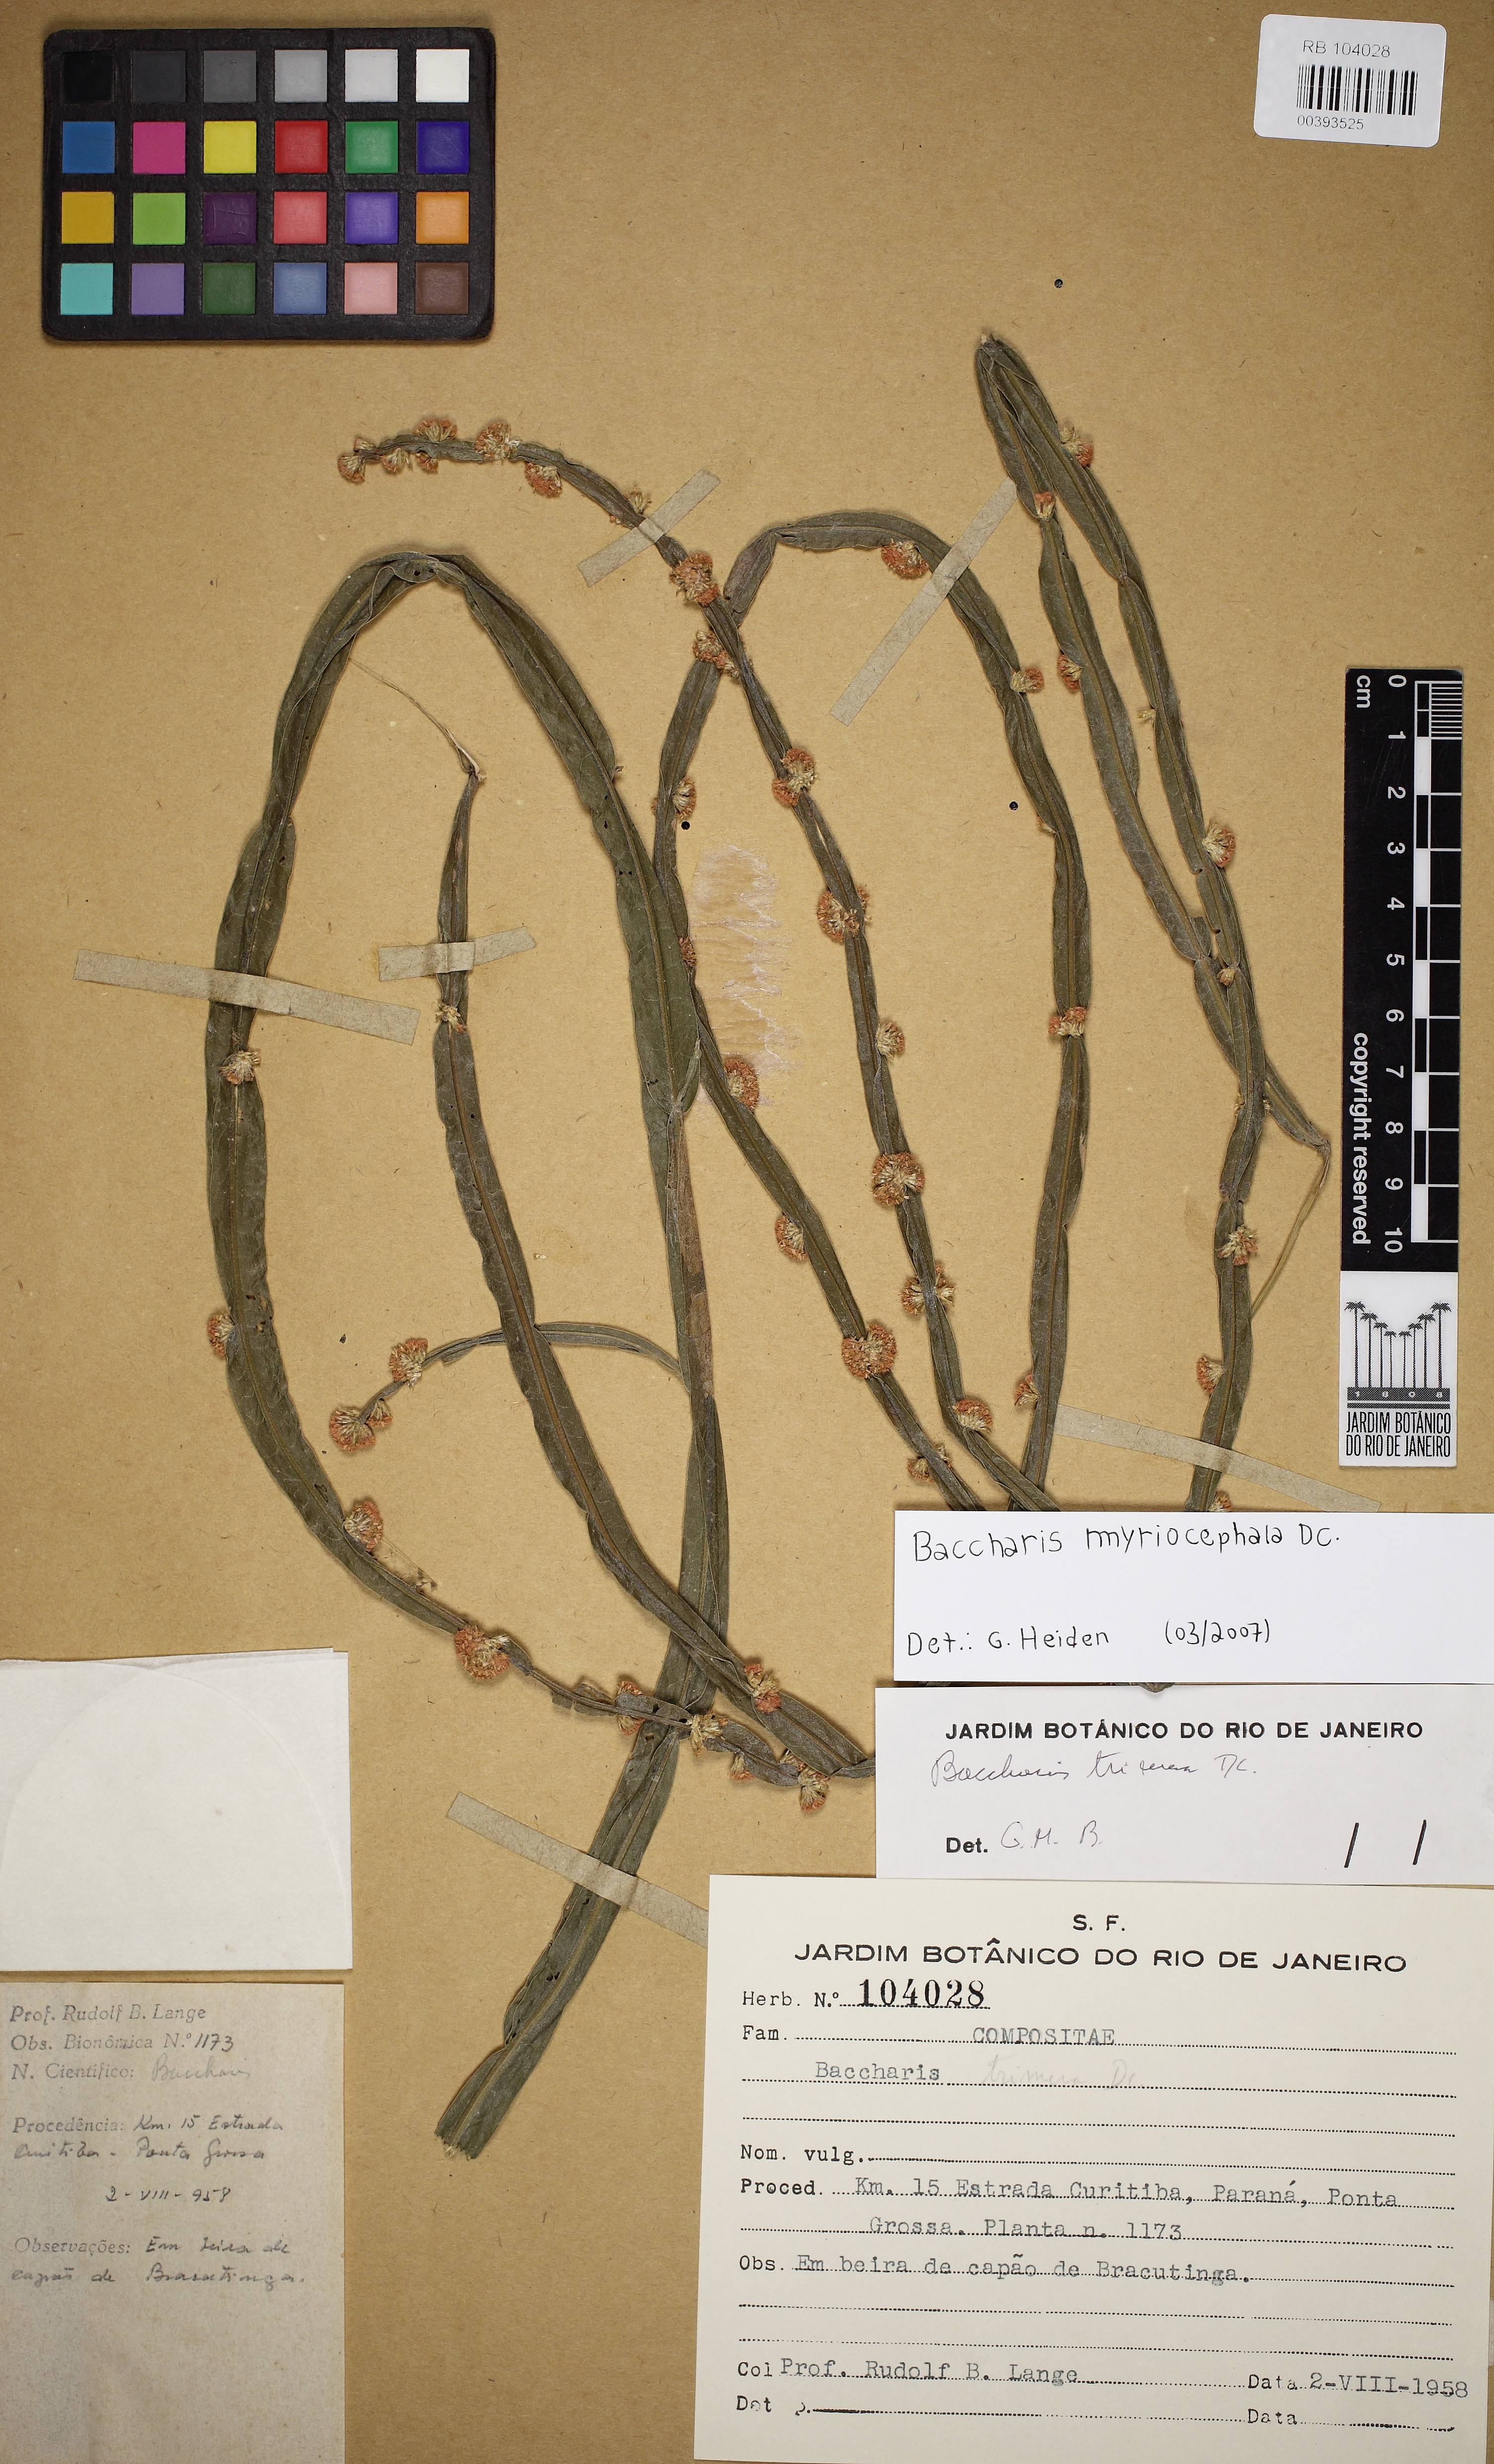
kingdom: Plantae
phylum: Tracheophyta
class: Magnoliopsida
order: Asterales
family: Asteraceae
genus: Baccharis
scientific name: Baccharis myriocephala
